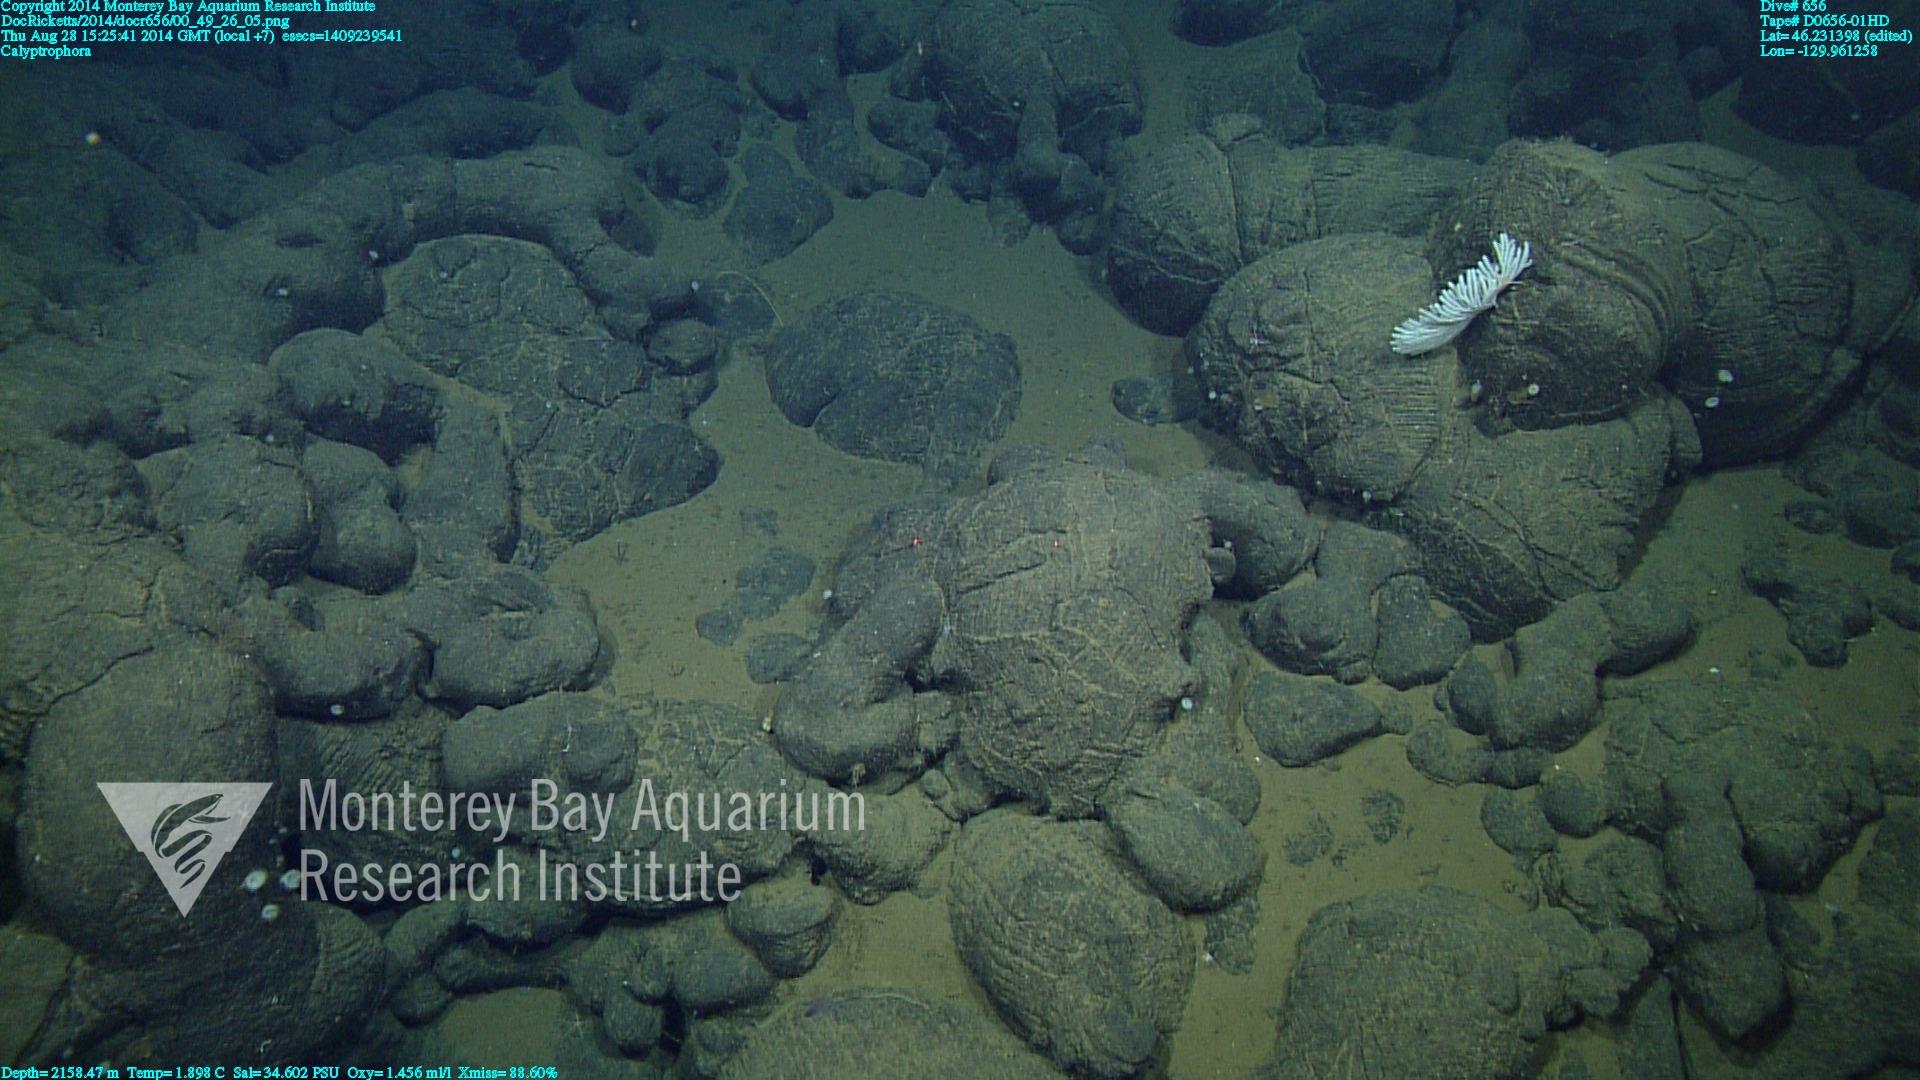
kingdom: Animalia
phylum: Cnidaria
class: Anthozoa
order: Scleralcyonacea
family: Primnoidae
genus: Calyptrophora
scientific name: Calyptrophora
